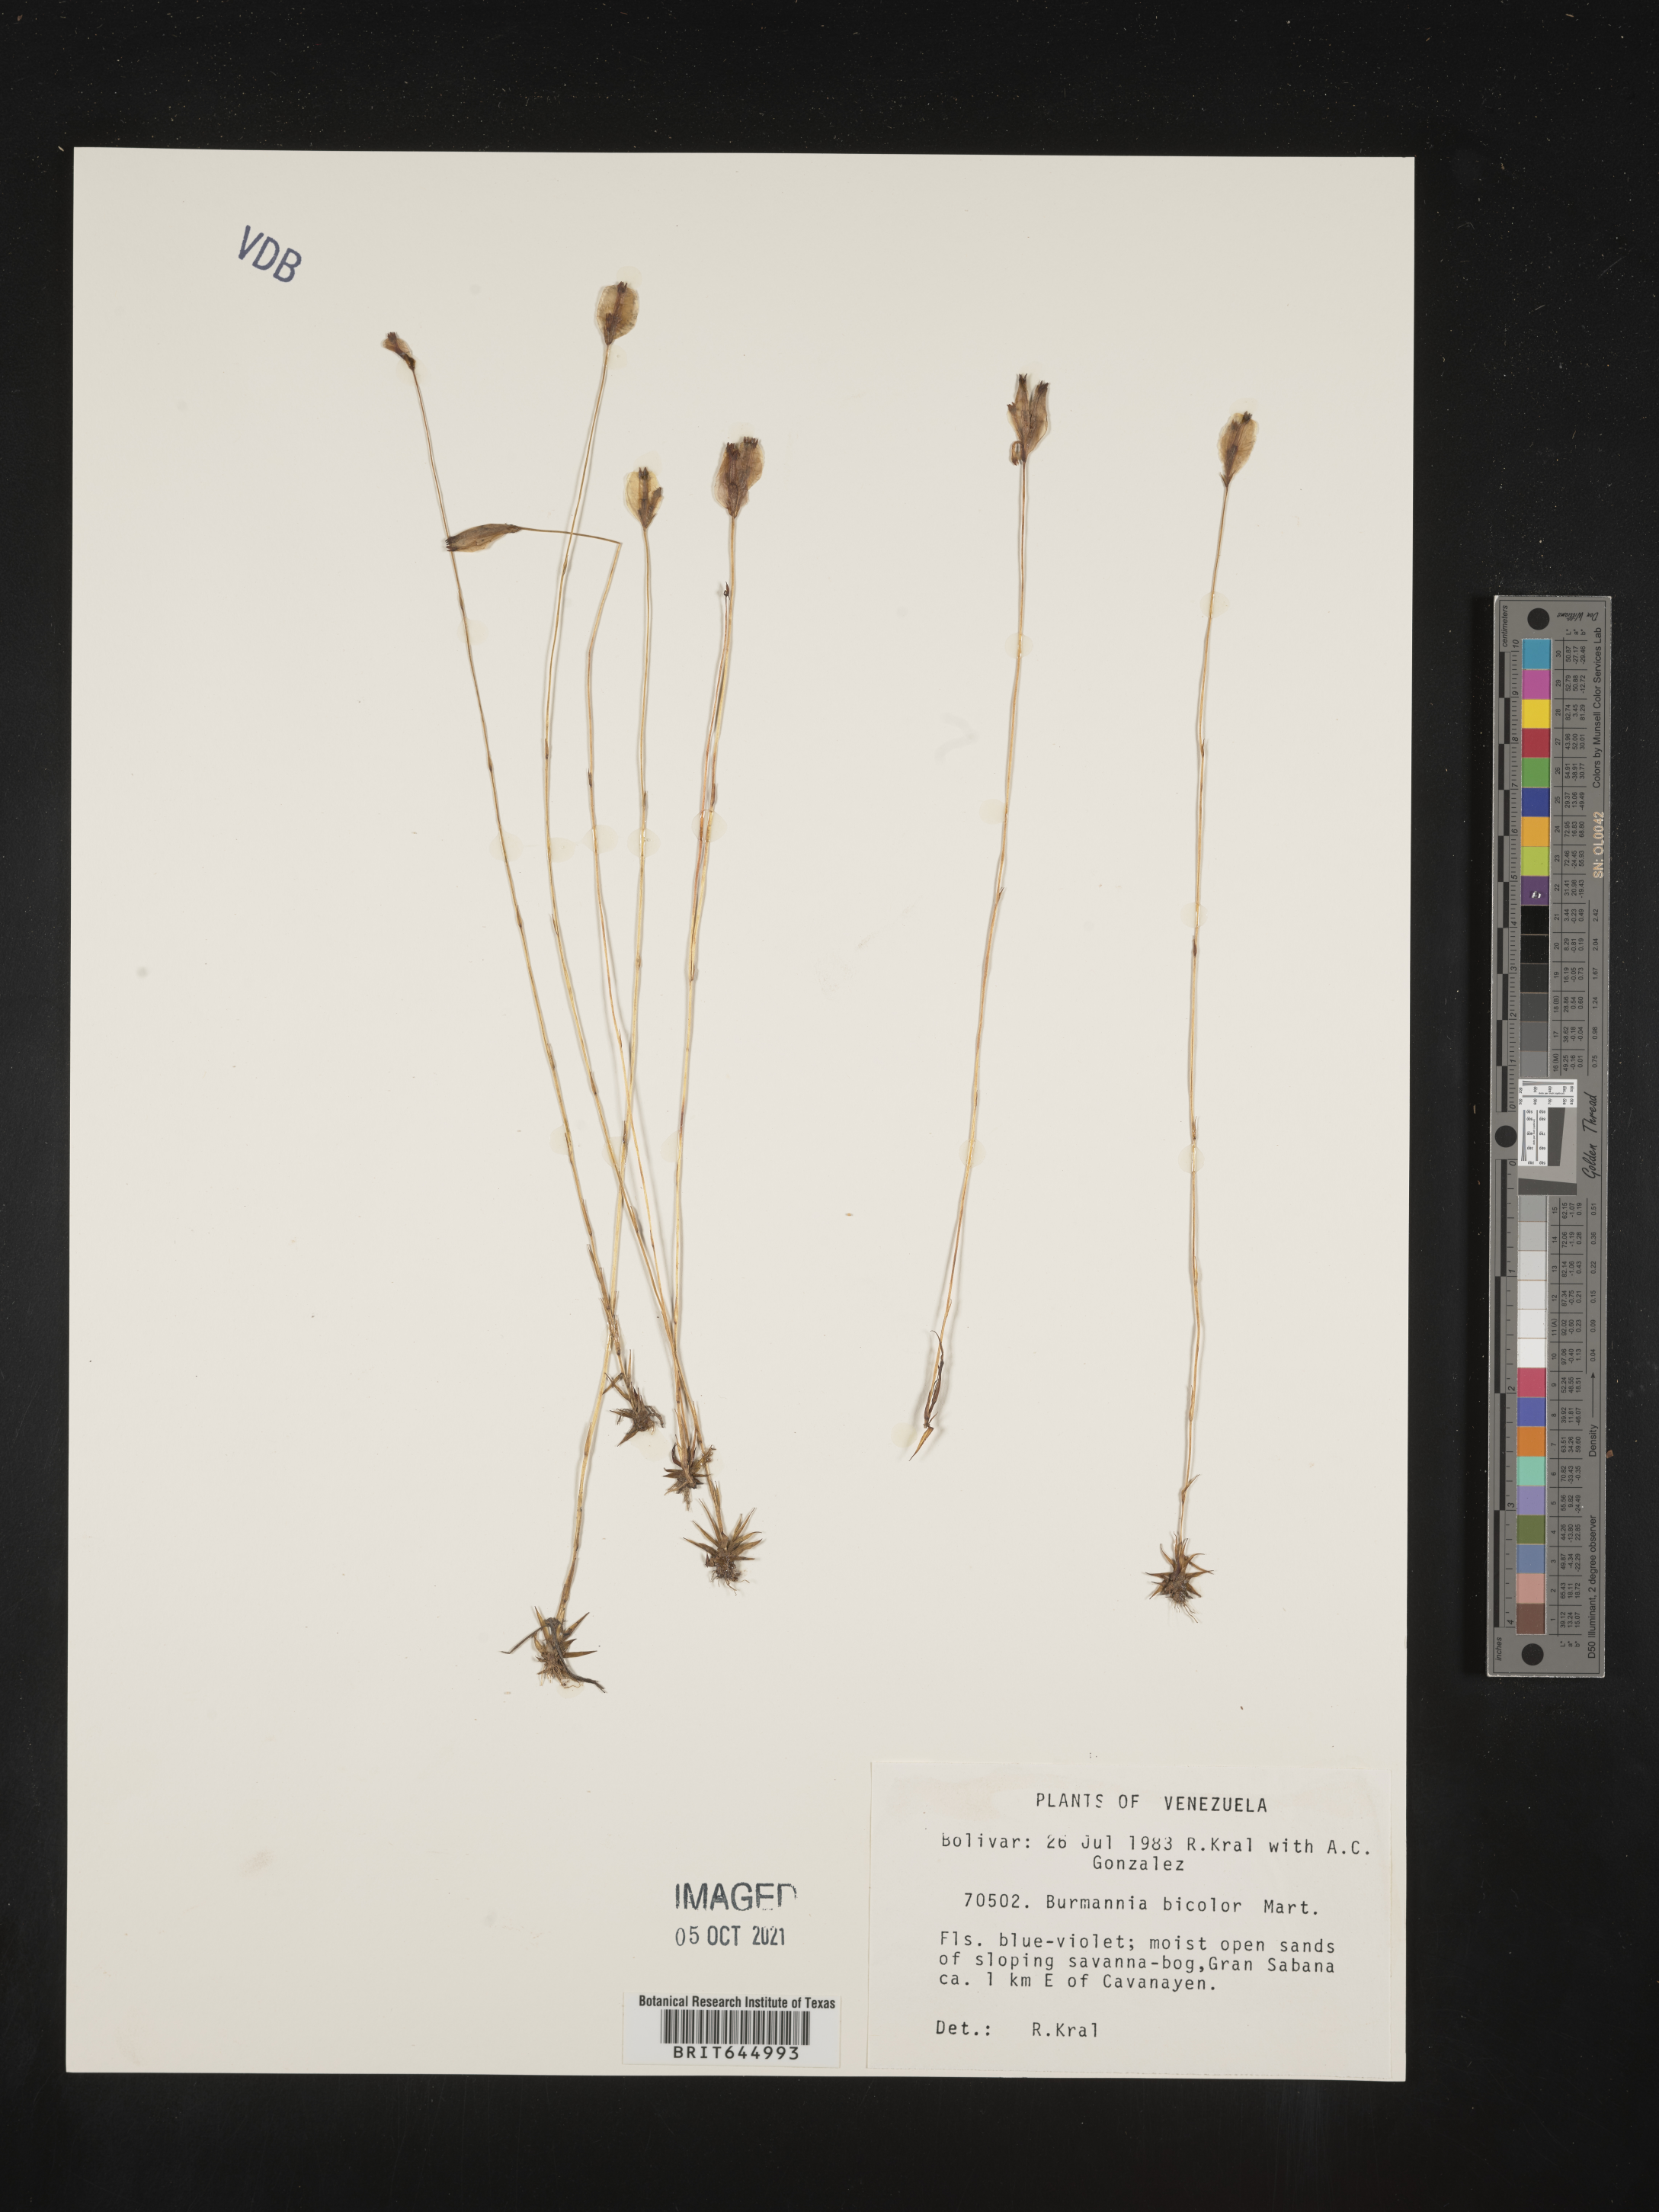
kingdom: Plantae
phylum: Tracheophyta
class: Liliopsida
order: Dioscoreales
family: Burmanniaceae
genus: Burmannia
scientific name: Burmannia bicolor
